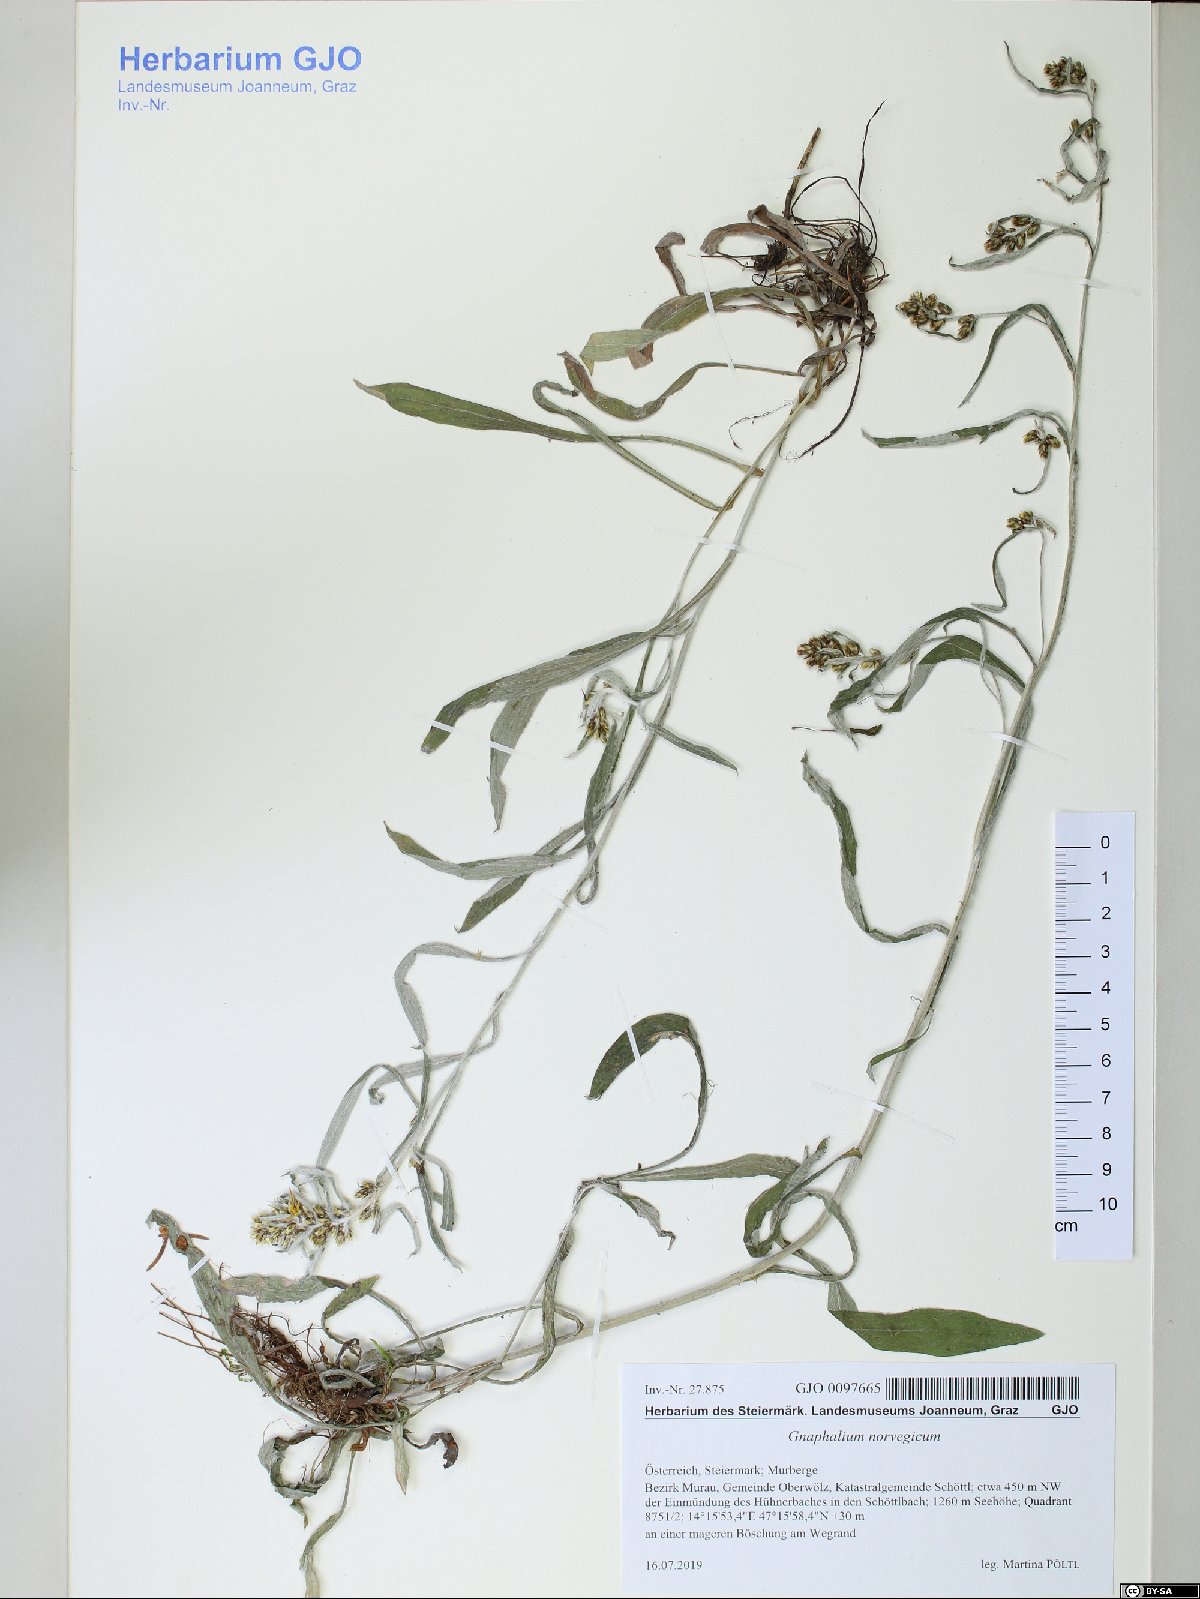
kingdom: Plantae
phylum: Tracheophyta
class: Magnoliopsida
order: Asterales
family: Asteraceae
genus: Omalotheca
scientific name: Omalotheca norvegica
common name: Norwegian arctic-cudweed
